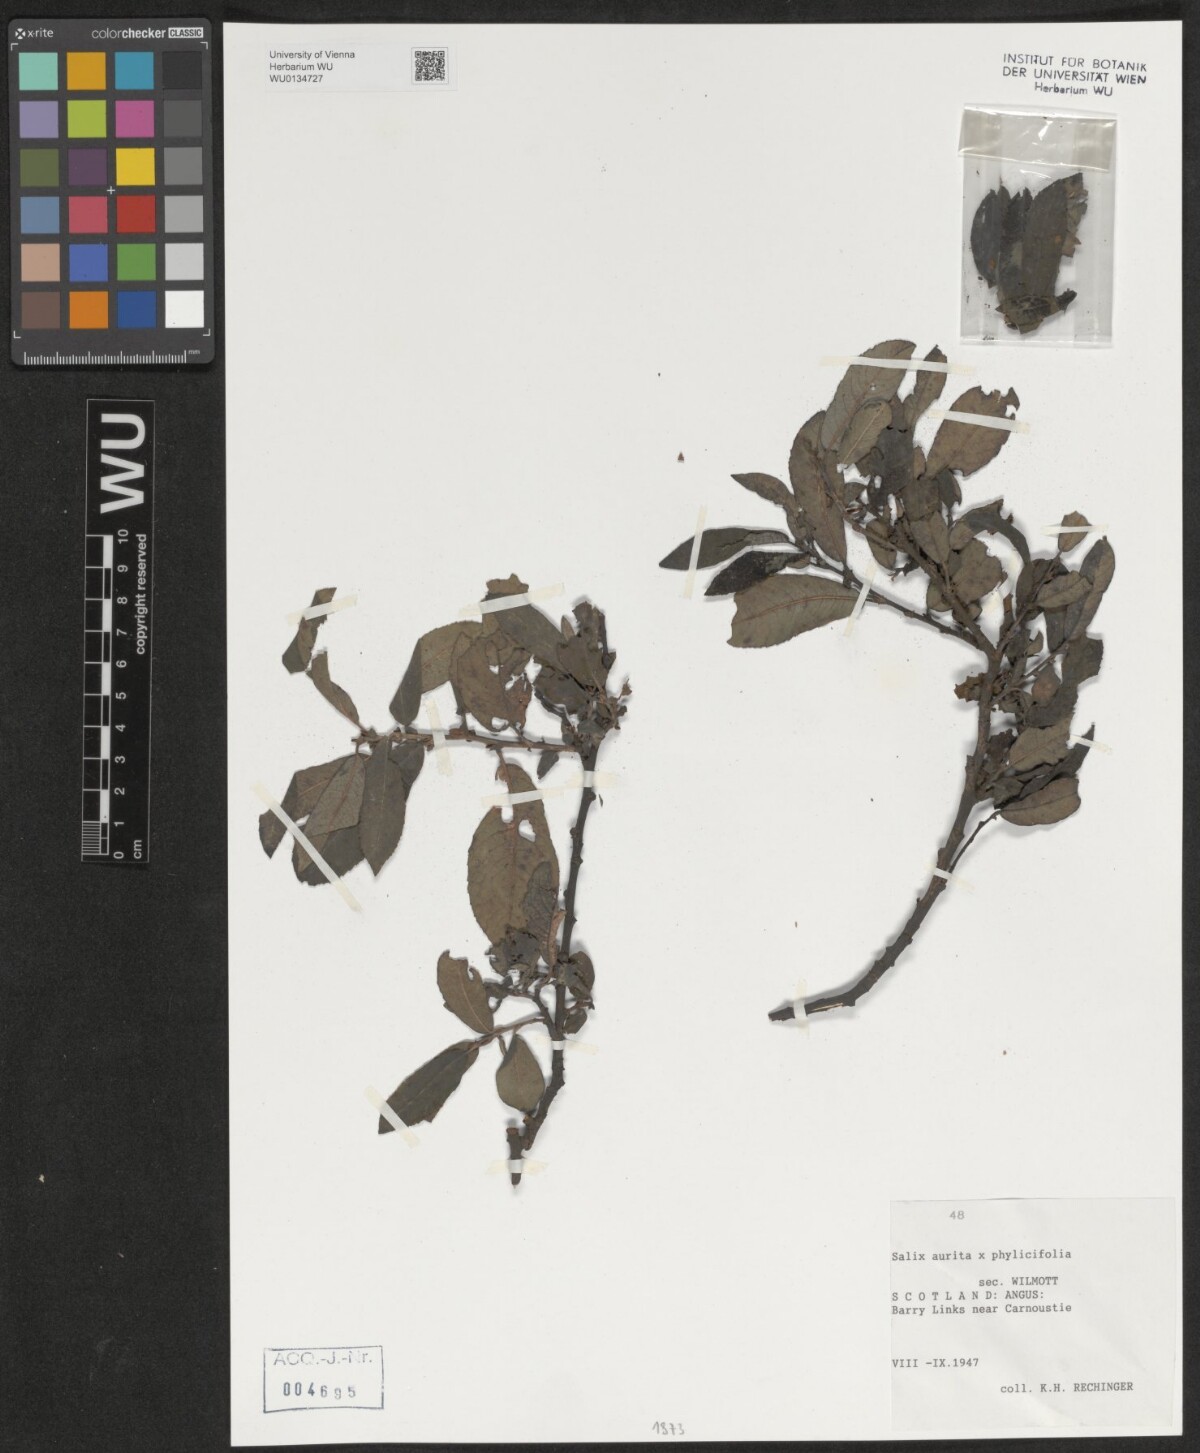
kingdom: Plantae
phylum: Tracheophyta
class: Magnoliopsida
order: Malpighiales
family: Salicaceae
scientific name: Salicaceae
